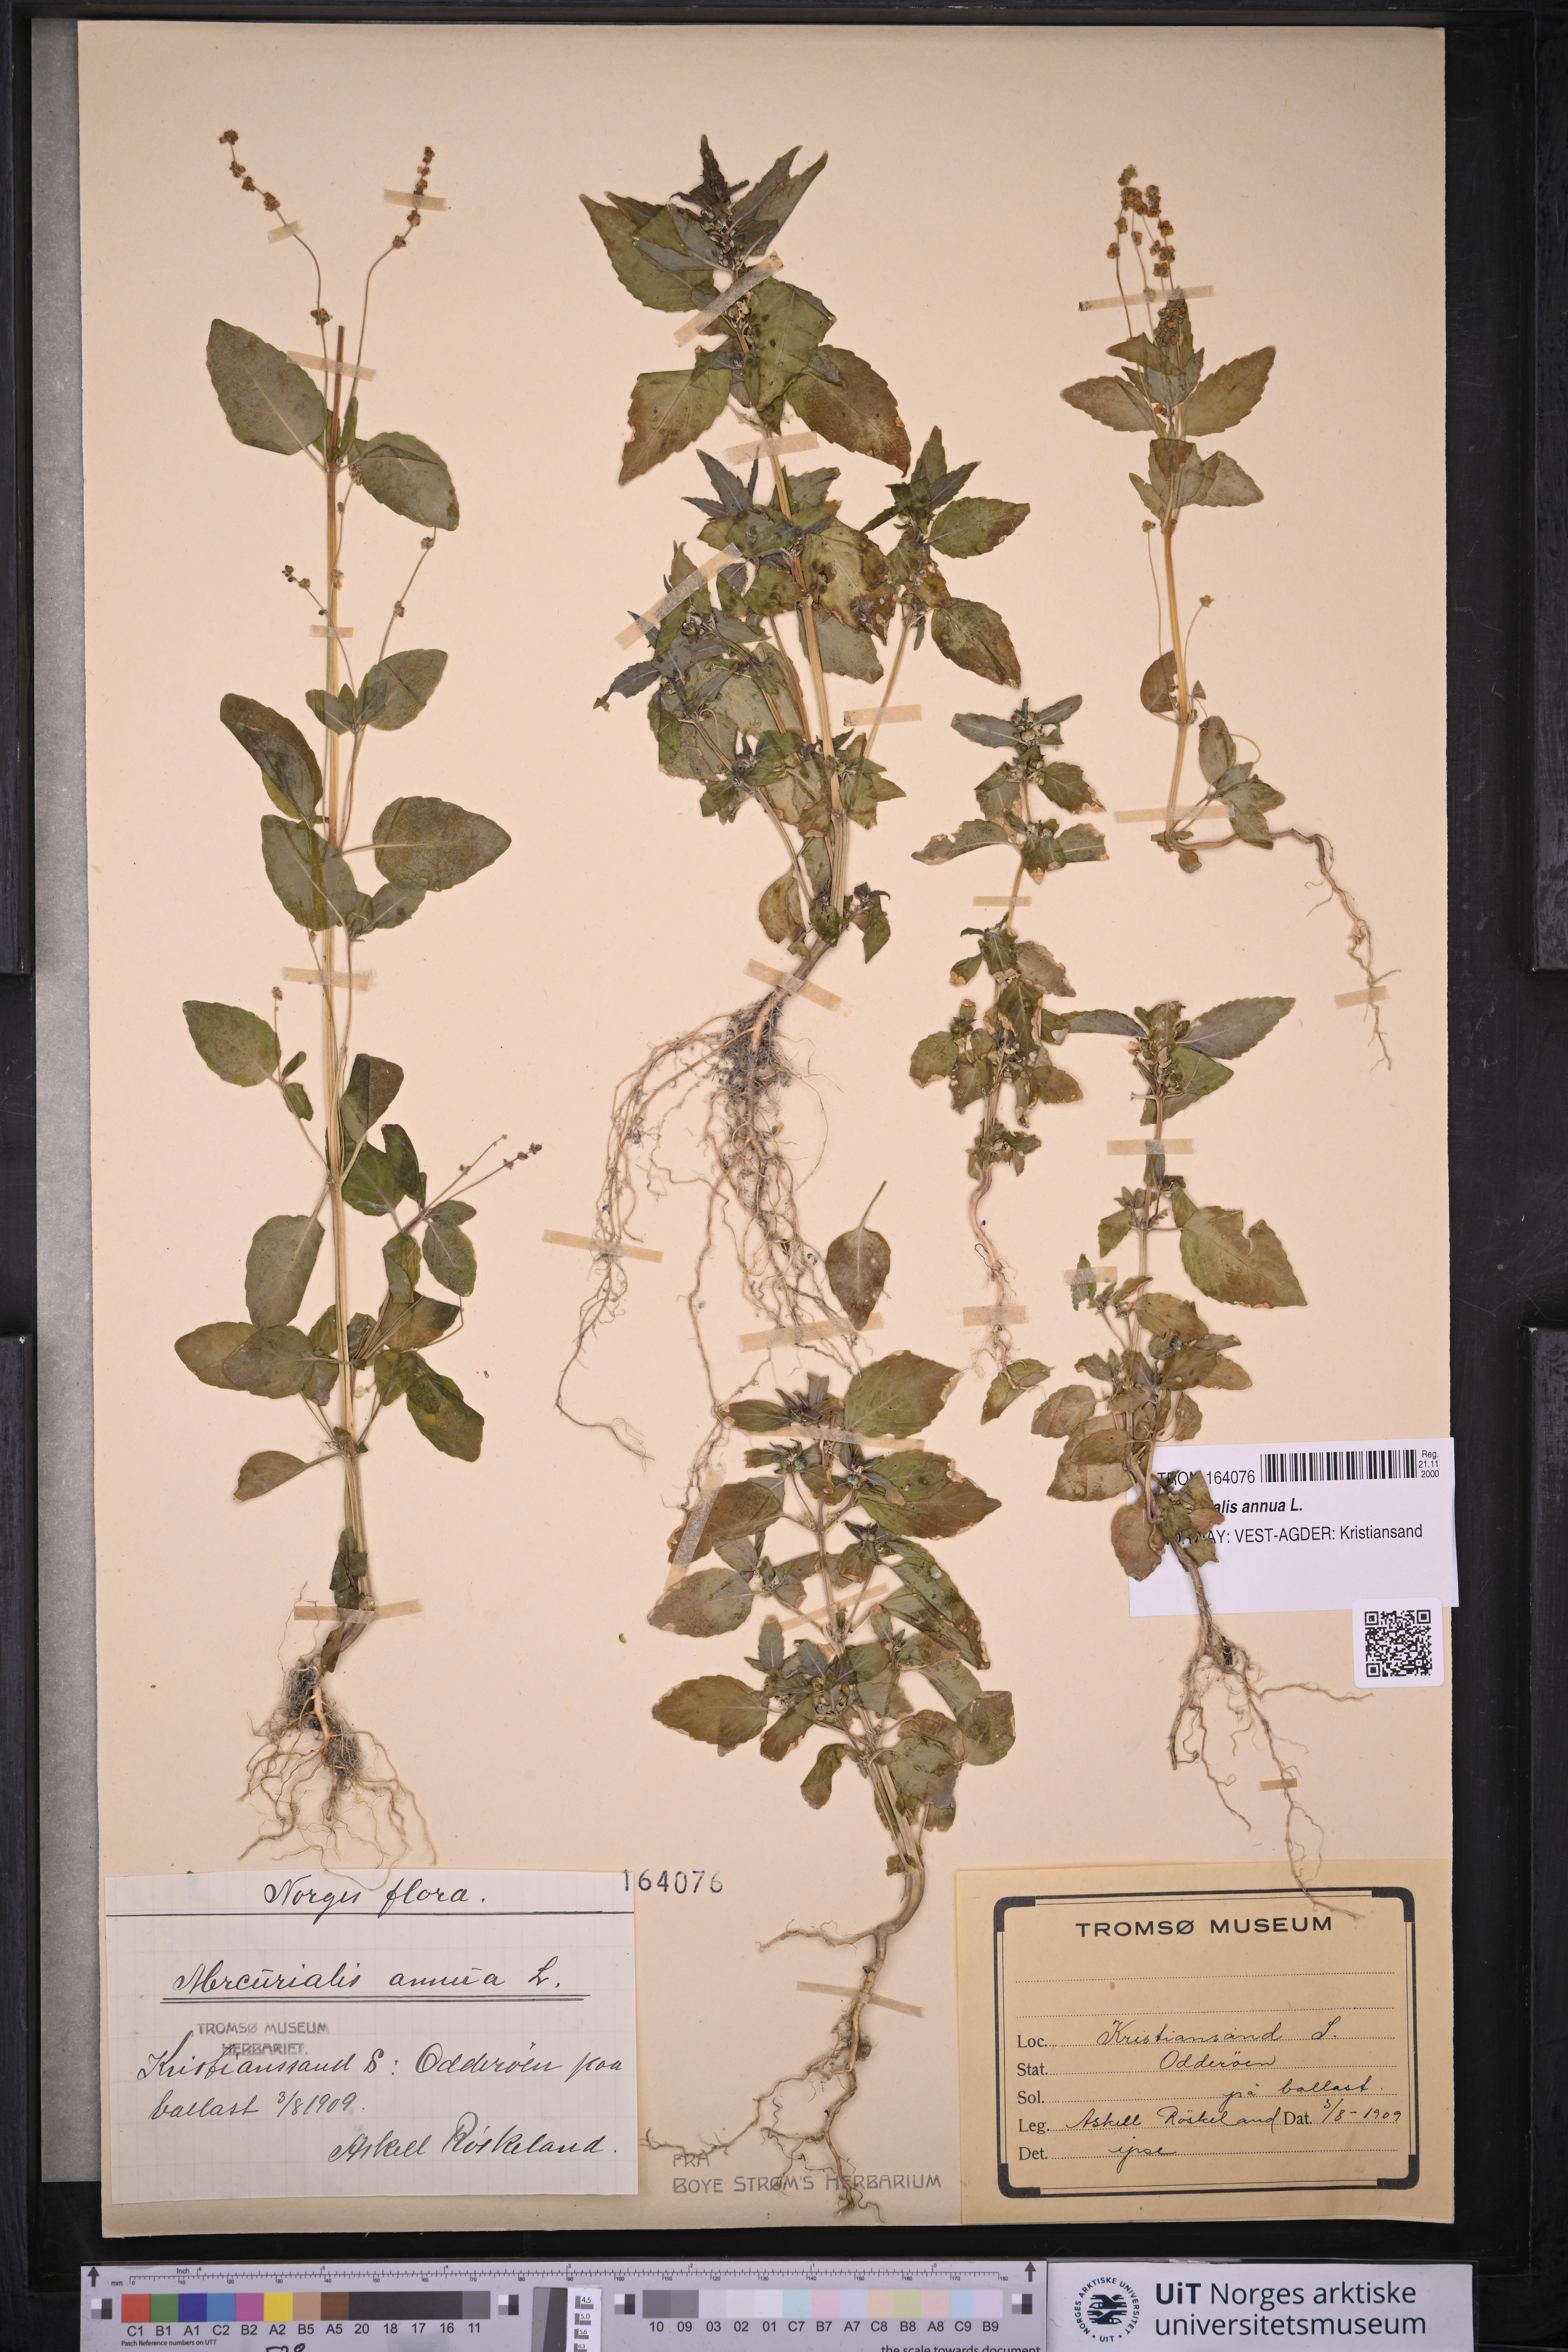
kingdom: Plantae
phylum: Tracheophyta
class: Magnoliopsida
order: Malpighiales
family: Euphorbiaceae
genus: Mercurialis
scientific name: Mercurialis annua
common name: Annual mercury
